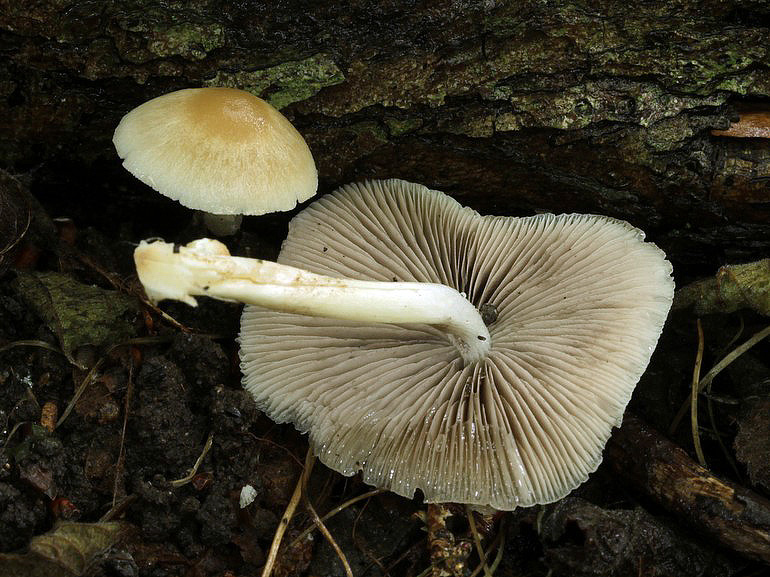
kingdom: Fungi
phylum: Basidiomycota
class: Agaricomycetes
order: Agaricales
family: Psathyrellaceae
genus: Candolleomyces
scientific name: Candolleomyces candolleanus
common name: Candolles mørkhat
